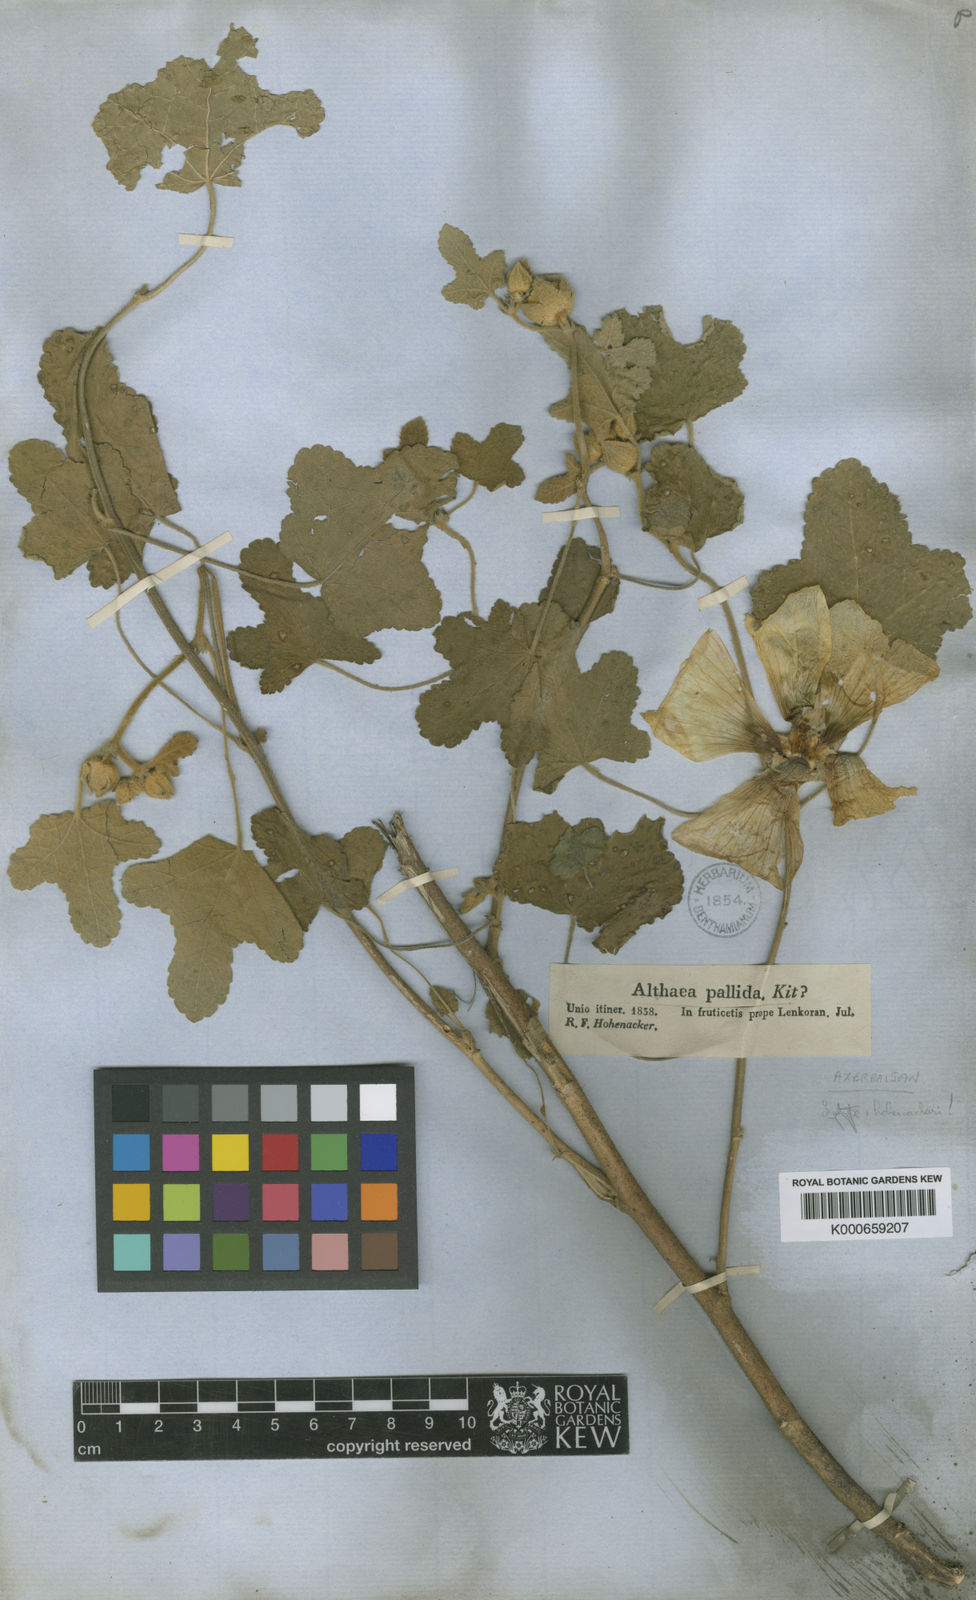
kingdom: Plantae
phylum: Tracheophyta
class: Magnoliopsida
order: Malvales
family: Malvaceae
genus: Alcea
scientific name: Alcea lenkoranica
